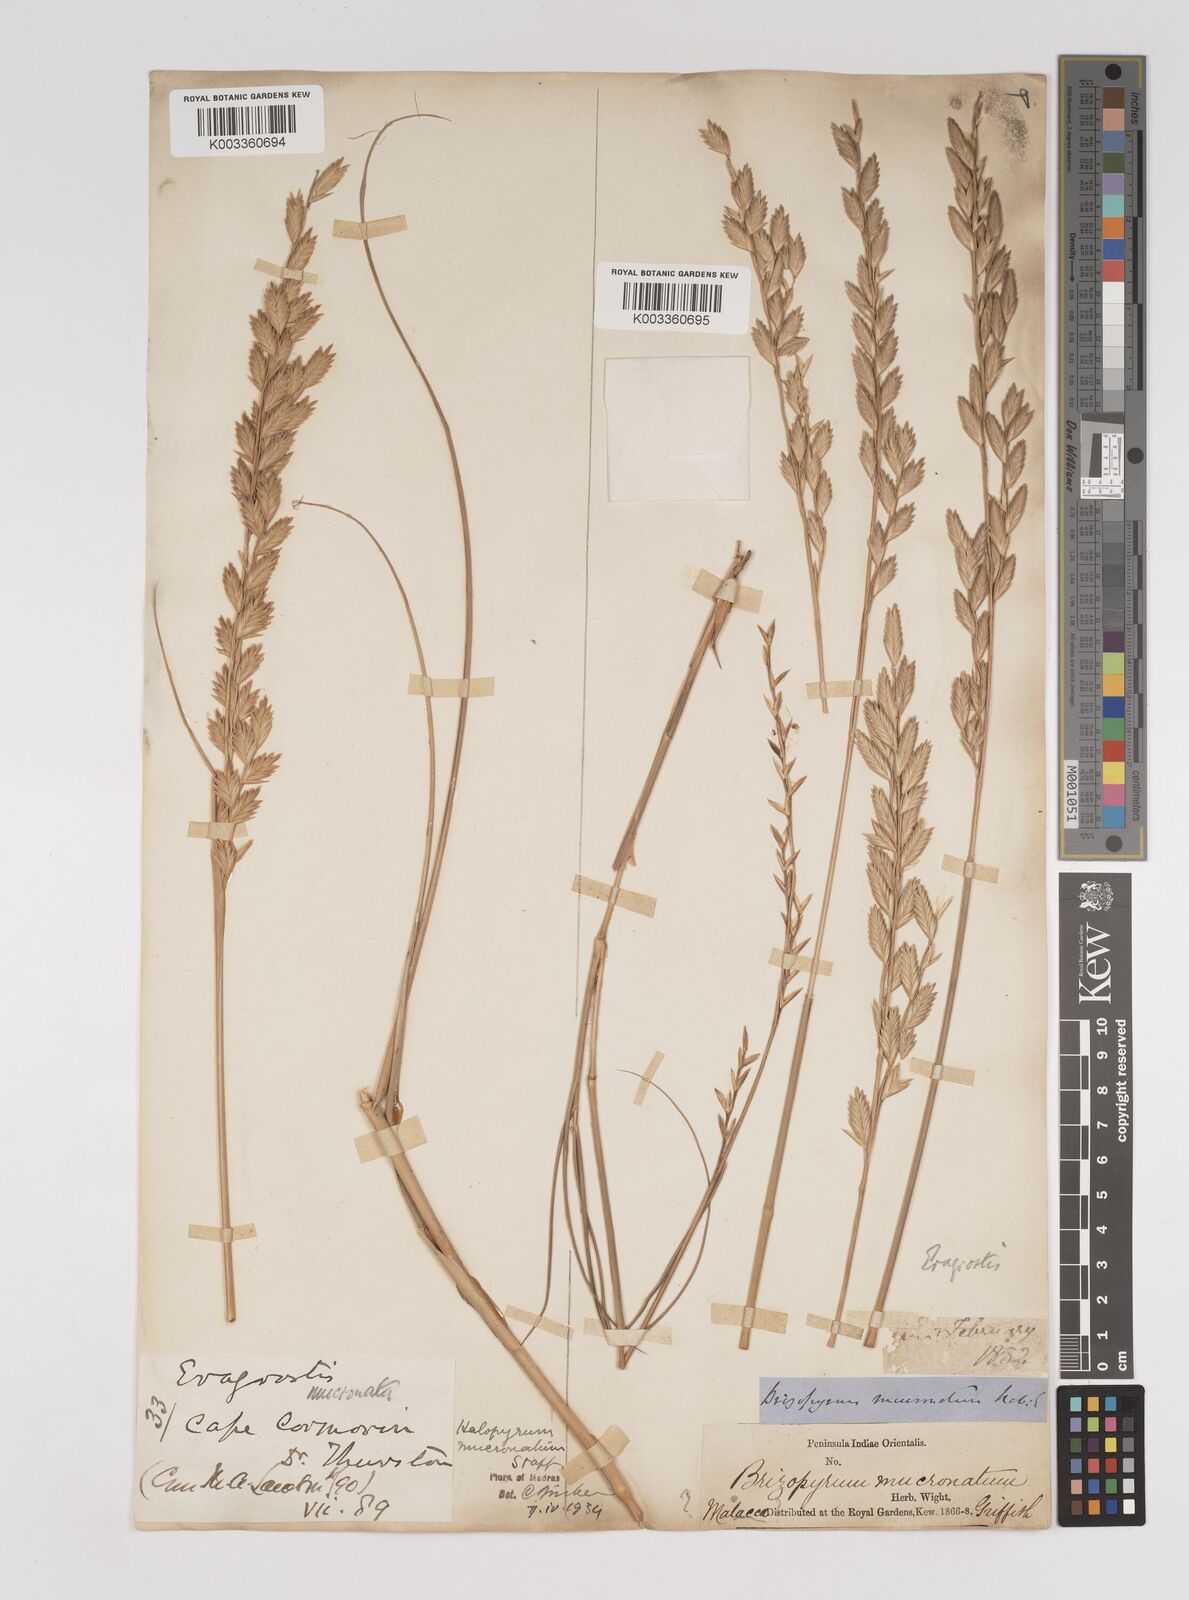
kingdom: Plantae
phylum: Tracheophyta
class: Liliopsida
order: Poales
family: Poaceae
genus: Halopyrum
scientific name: Halopyrum mucronatum
